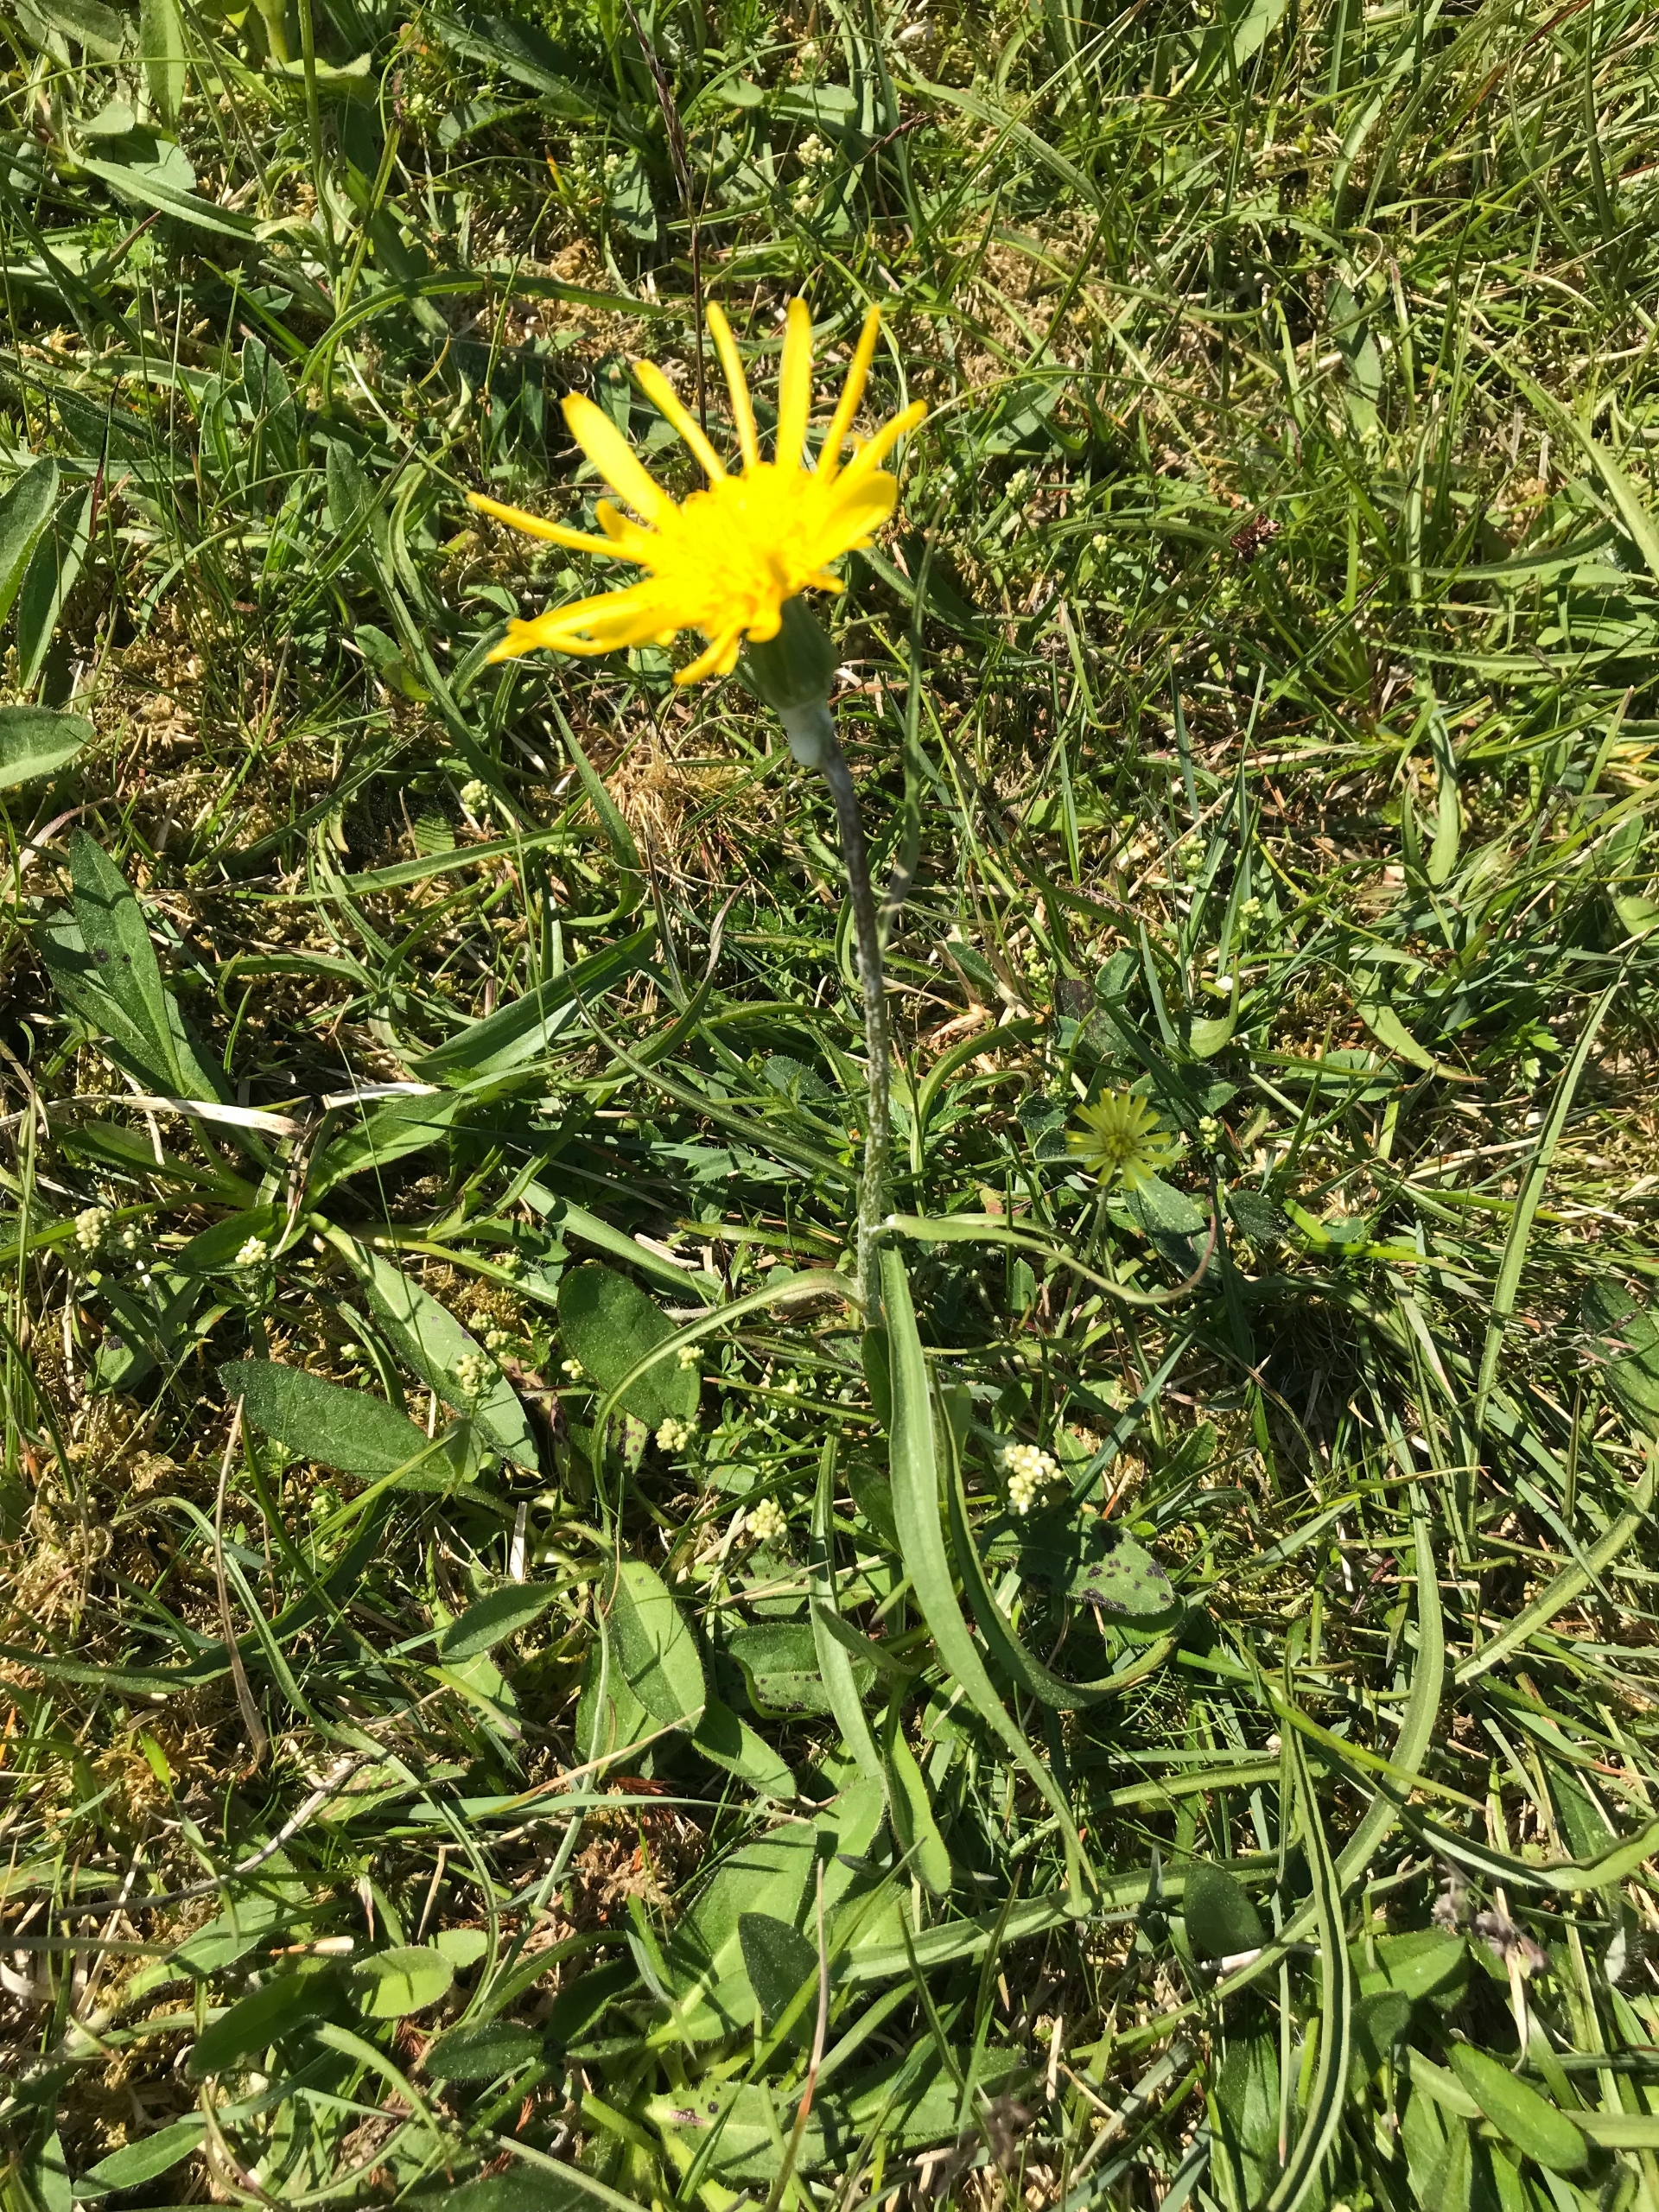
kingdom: Plantae
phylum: Tracheophyta
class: Magnoliopsida
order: Asterales
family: Asteraceae
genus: Scorzonera
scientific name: Scorzonera humilis
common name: Lav skorsoner
